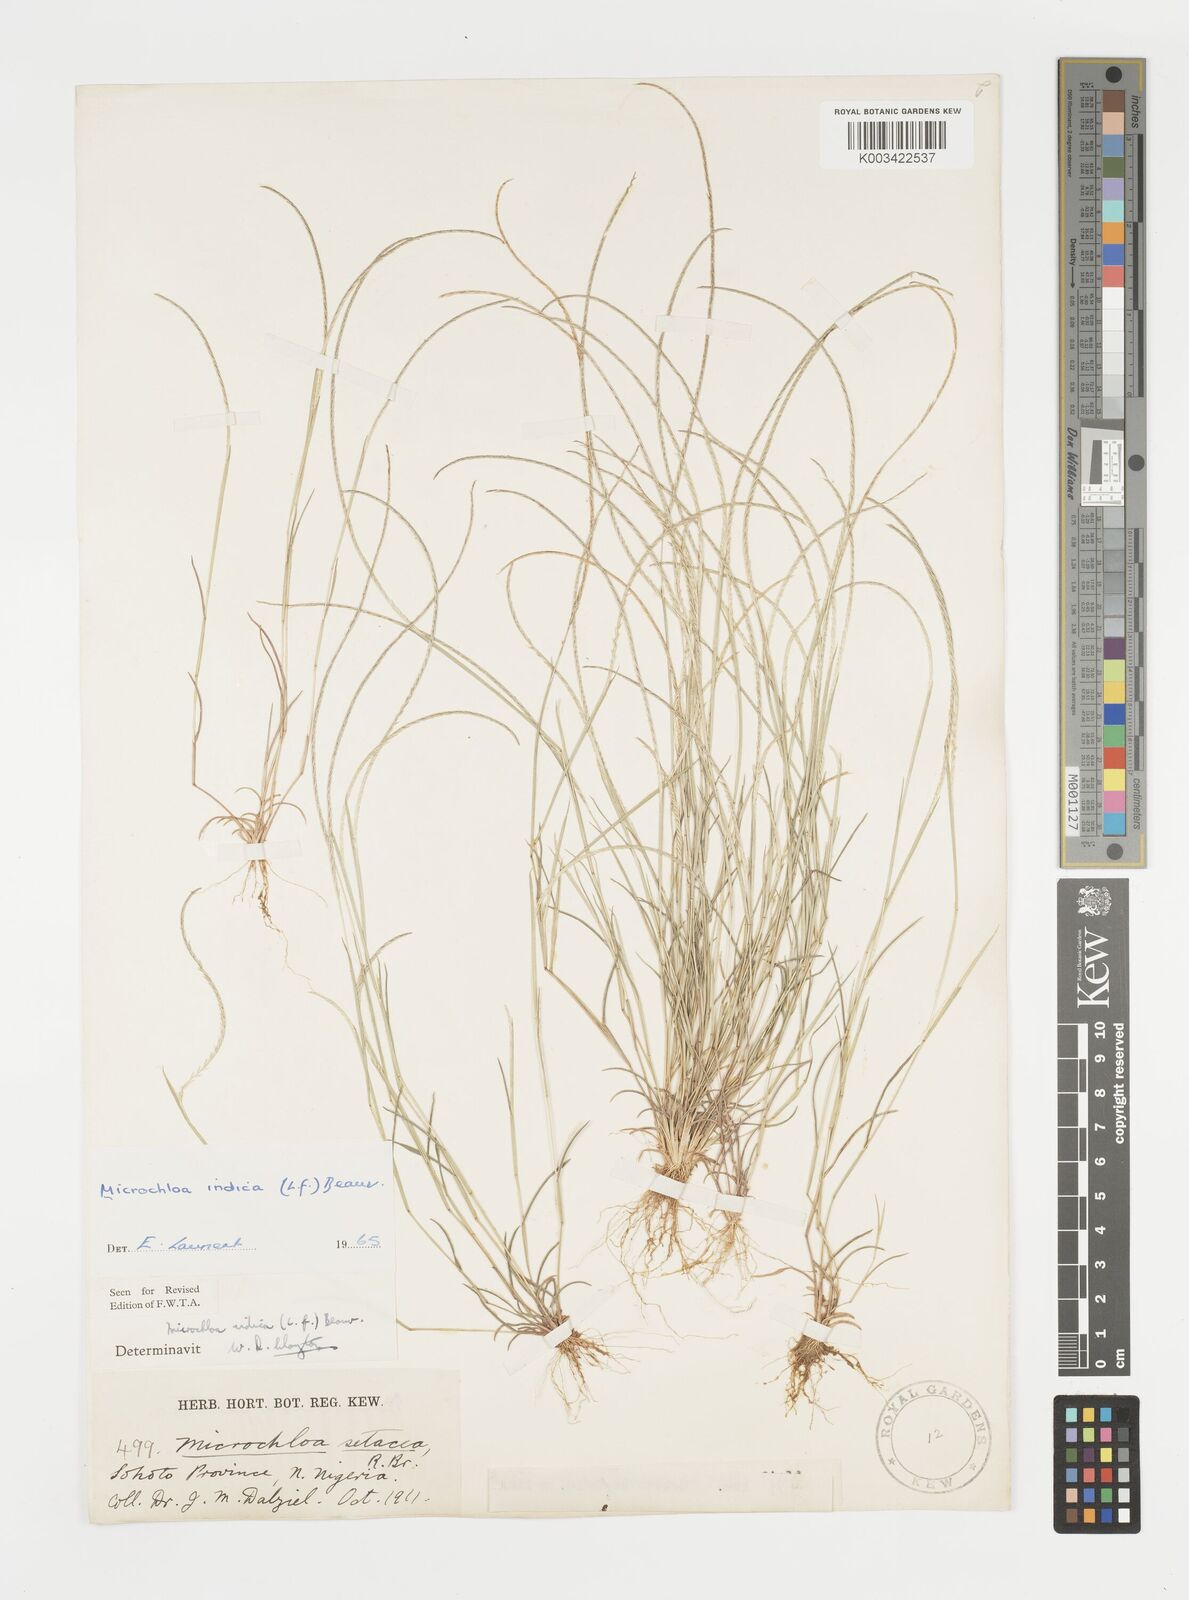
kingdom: Plantae
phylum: Tracheophyta
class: Liliopsida
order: Poales
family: Poaceae
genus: Microchloa
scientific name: Microchloa indica
